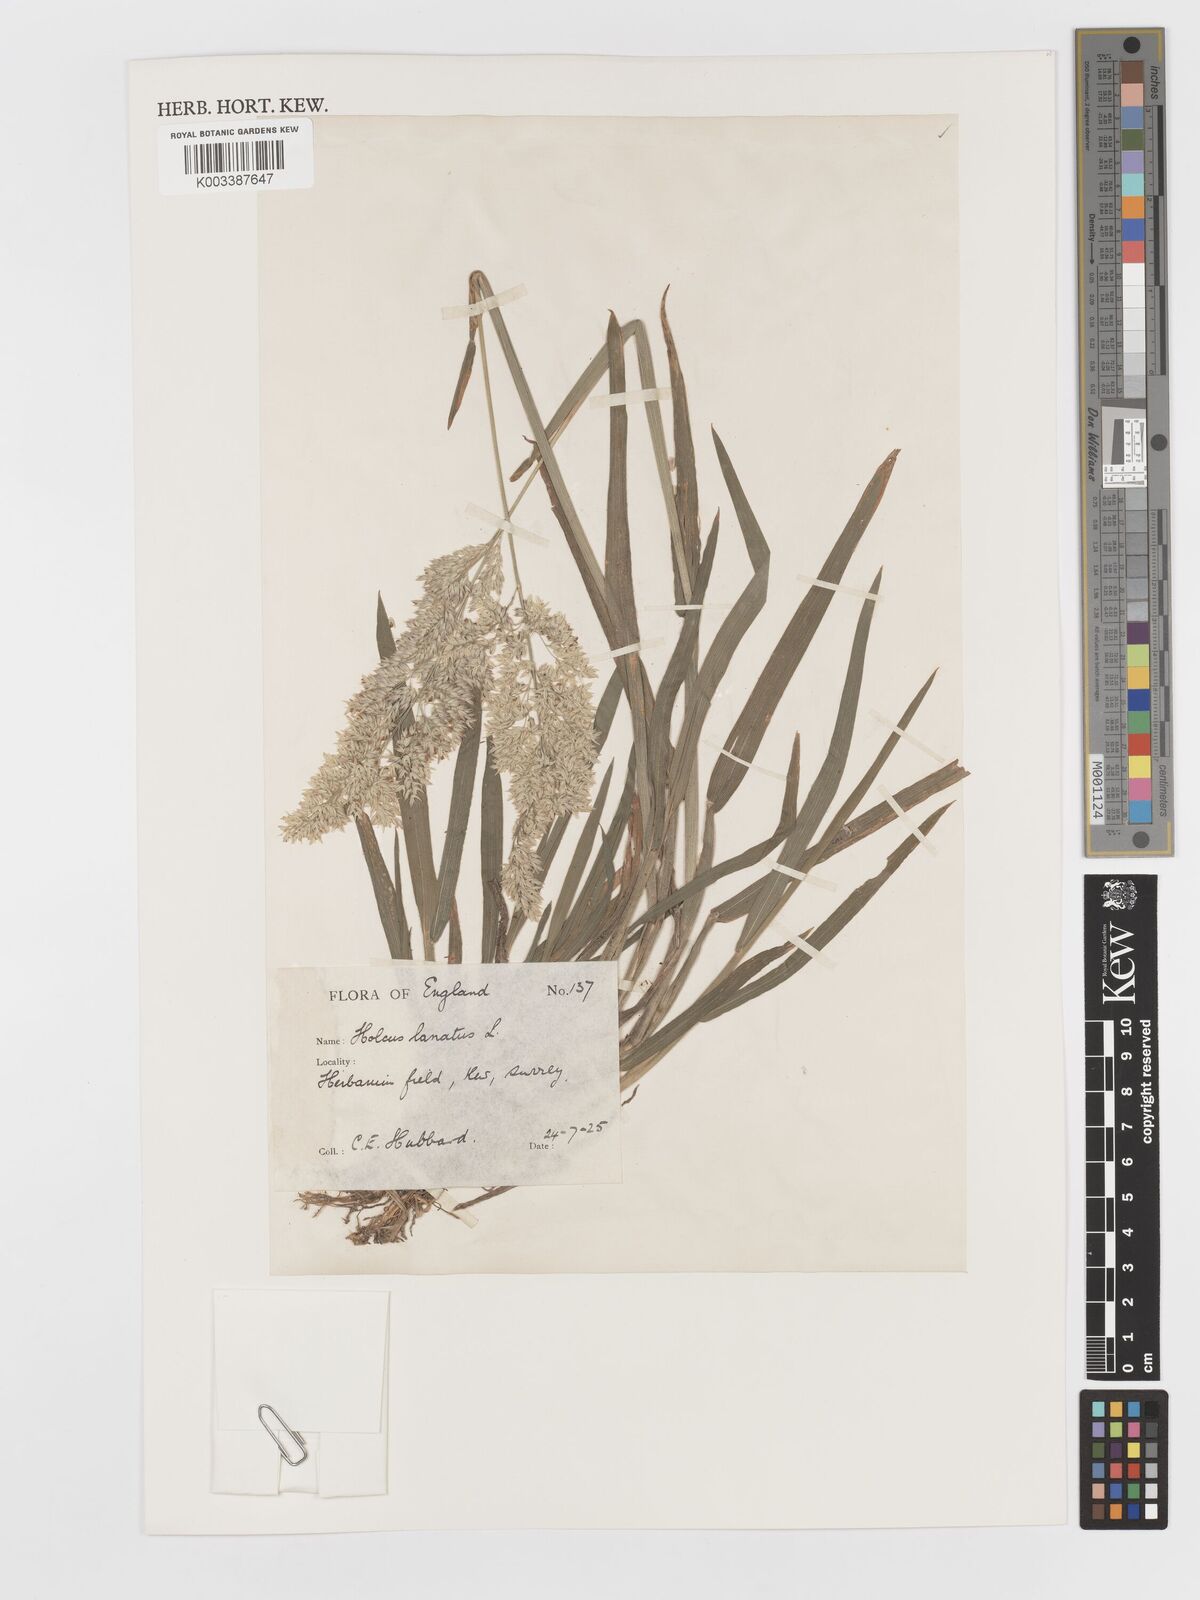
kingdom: Plantae
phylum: Tracheophyta
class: Liliopsida
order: Poales
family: Poaceae
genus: Holcus
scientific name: Holcus lanatus
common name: Yorkshire-fog
